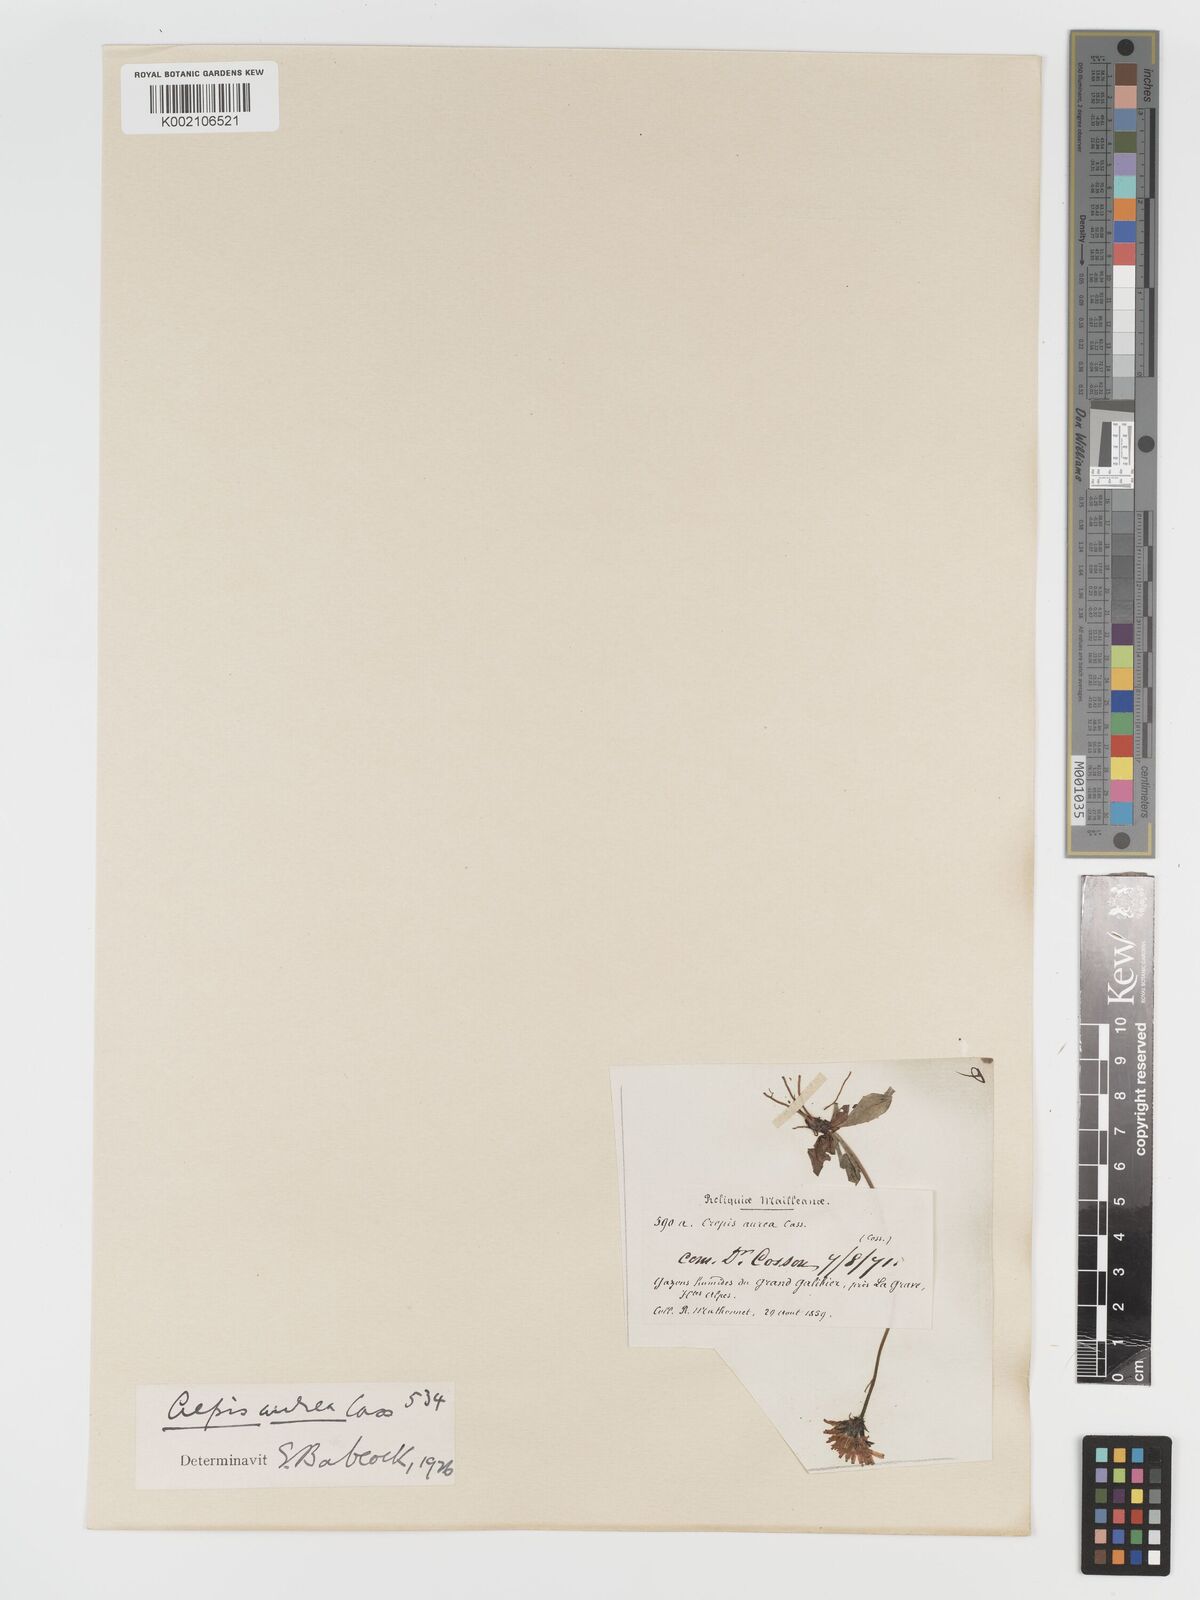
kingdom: Plantae
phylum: Tracheophyta
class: Magnoliopsida
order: Asterales
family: Asteraceae
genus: Crepis
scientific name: Crepis aurea
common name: Golden hawk's-beard
